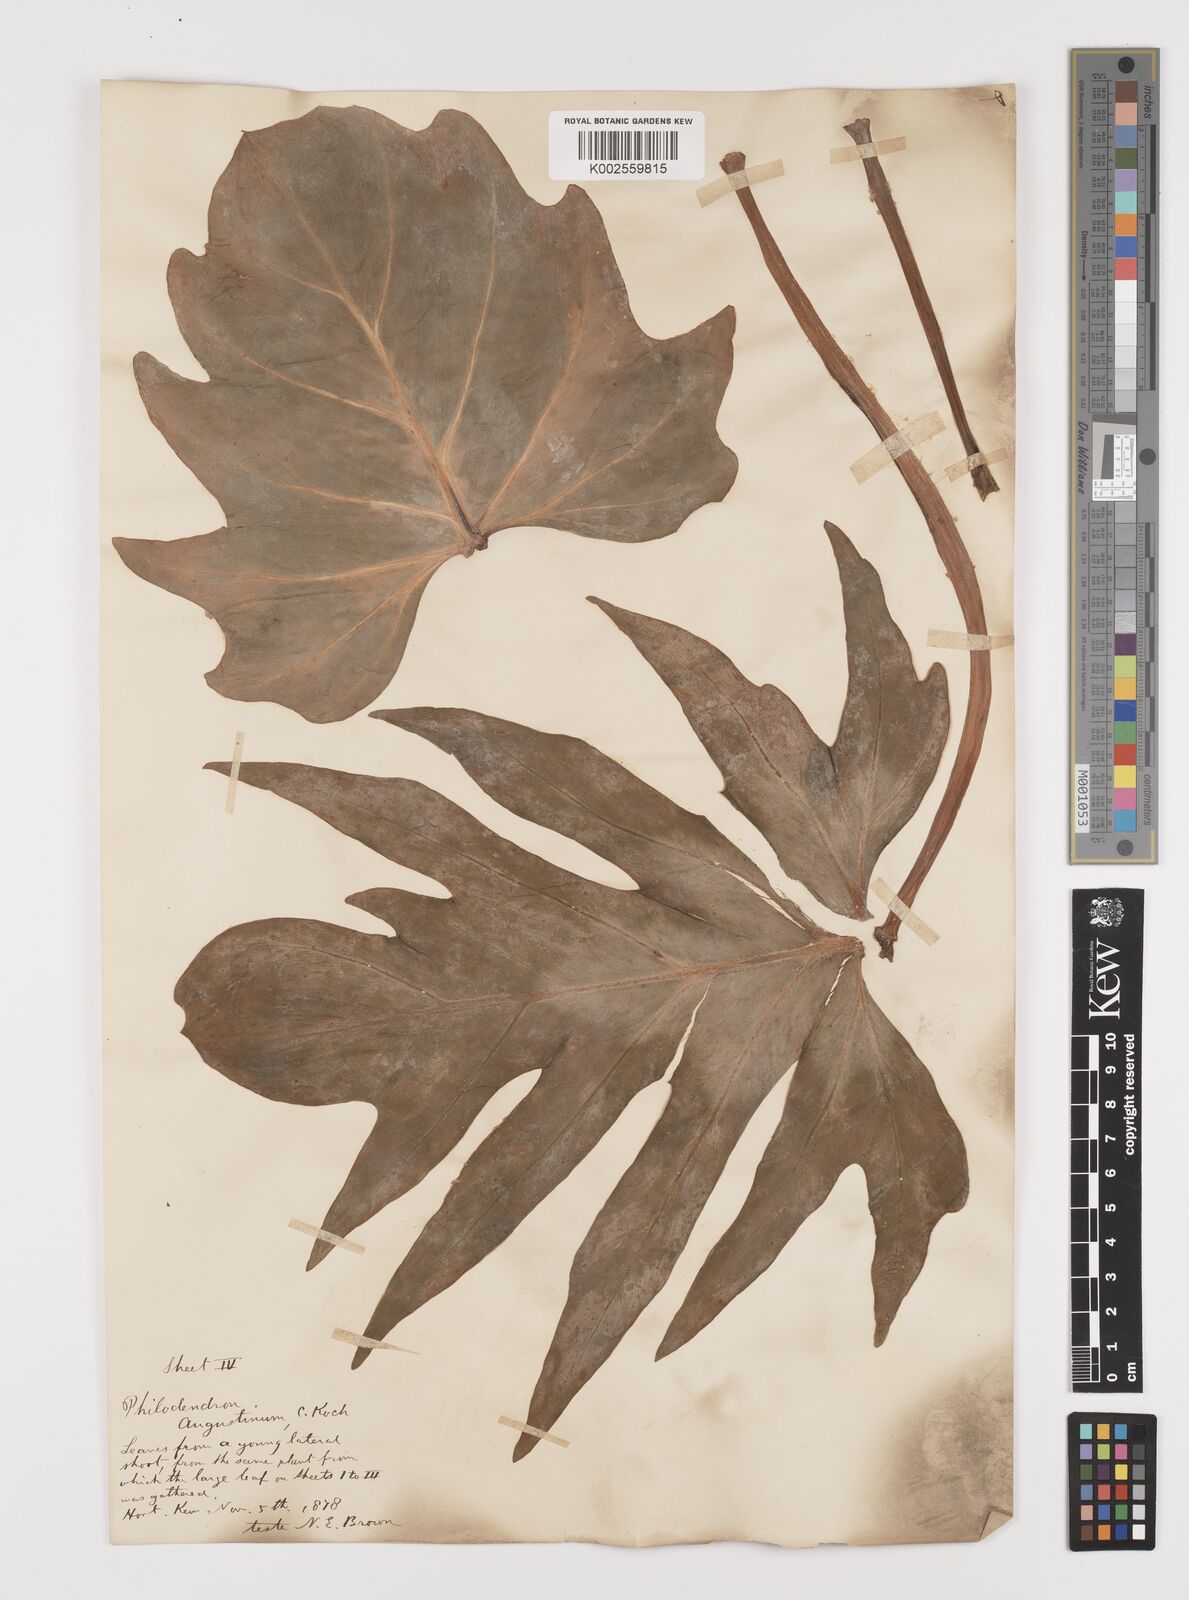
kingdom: Plantae
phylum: Tracheophyta
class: Liliopsida
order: Alismatales
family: Araceae
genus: Philodendron
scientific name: Philodendron radiatum
